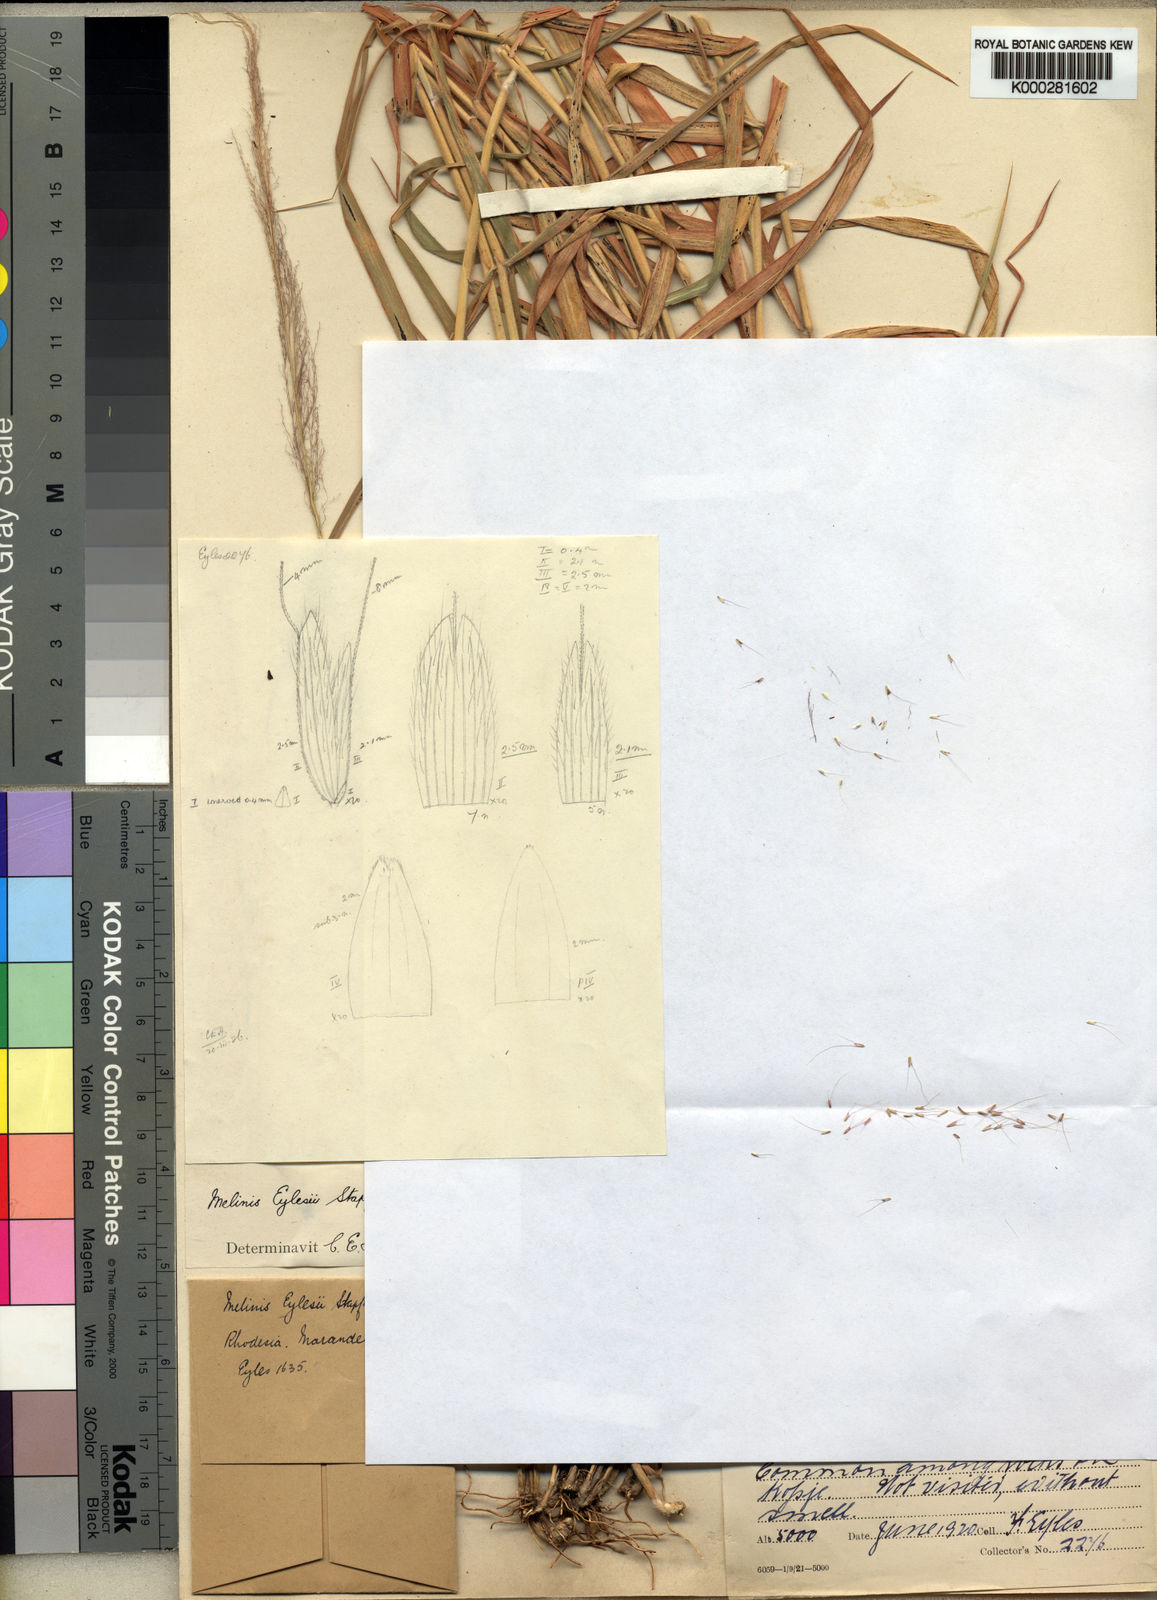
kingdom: Plantae
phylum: Tracheophyta
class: Liliopsida
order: Poales
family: Poaceae
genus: Melinis
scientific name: Melinis ambigua
